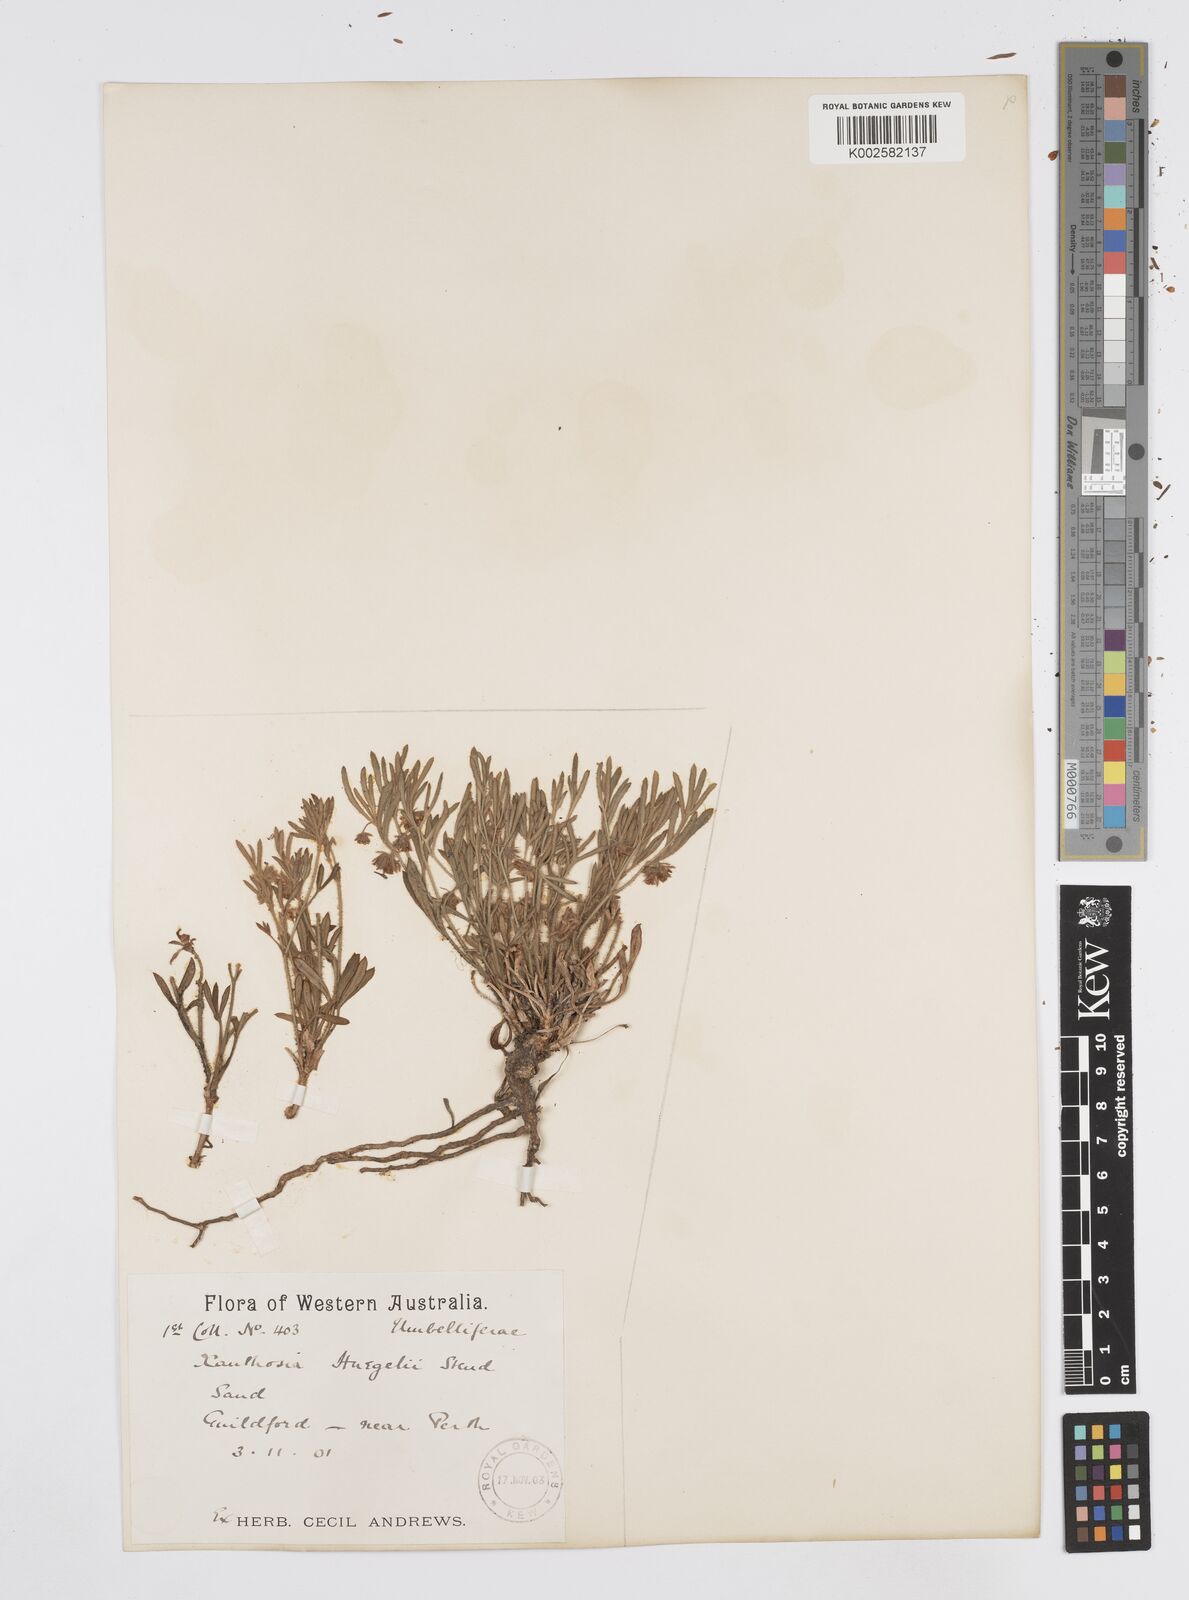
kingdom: Plantae
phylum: Tracheophyta
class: Magnoliopsida
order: Apiales
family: Apiaceae
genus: Xanthosia
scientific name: Xanthosia huegelii
